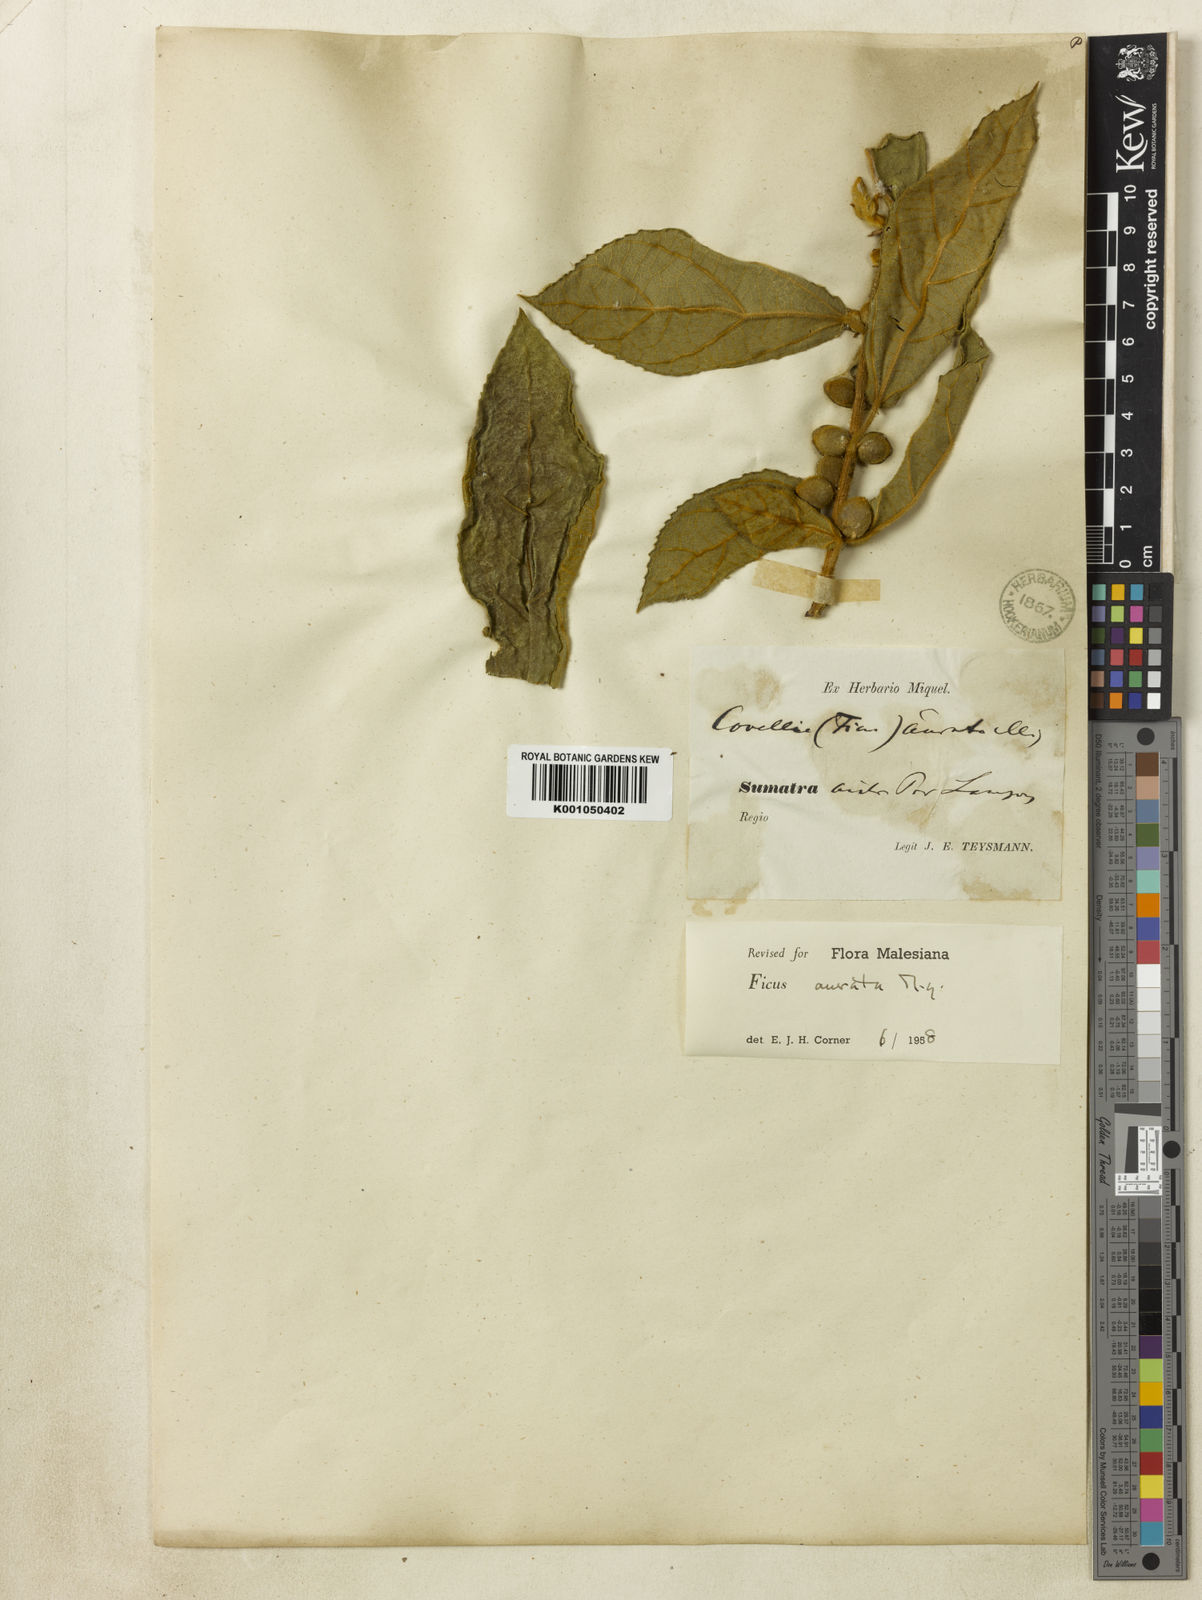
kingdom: Plantae
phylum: Tracheophyta
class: Magnoliopsida
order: Rosales
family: Moraceae
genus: Ficus
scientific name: Ficus aurata
